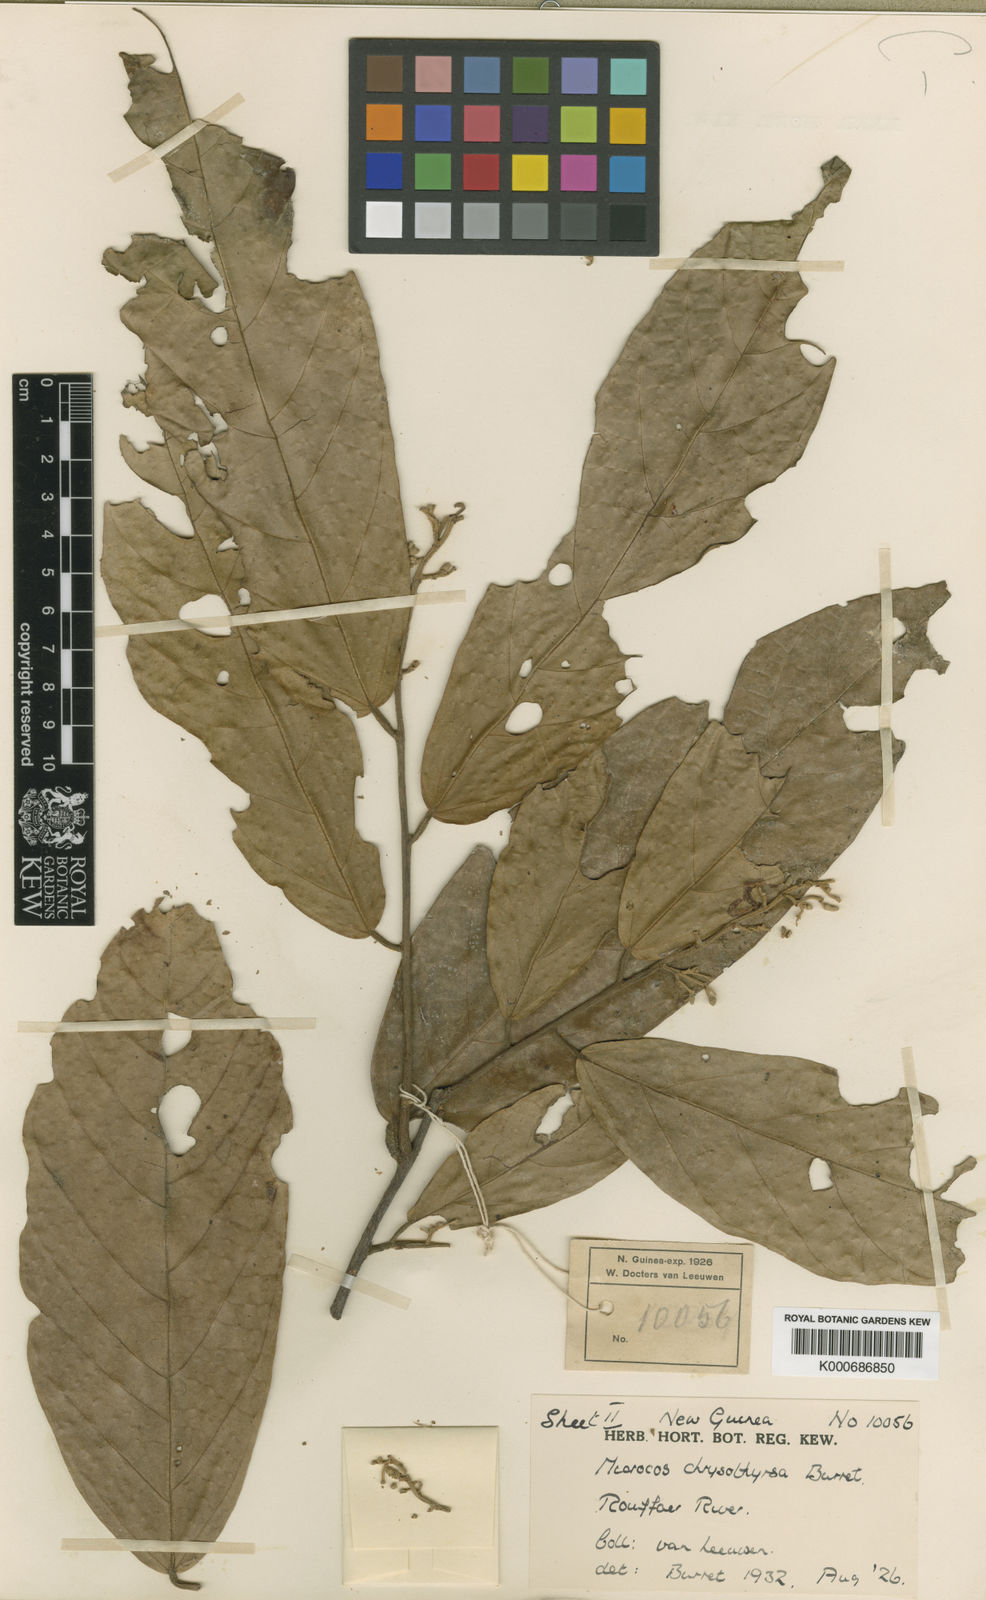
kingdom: Plantae
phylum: Tracheophyta
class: Magnoliopsida
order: Malvales
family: Malvaceae
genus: Microcos
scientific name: Microcos chrysothyrsa
